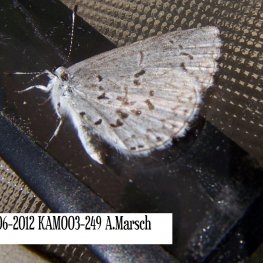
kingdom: Animalia
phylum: Arthropoda
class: Insecta
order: Lepidoptera
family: Lycaenidae
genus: Celastrina
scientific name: Celastrina serotina
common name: Cherry Gall Azure
